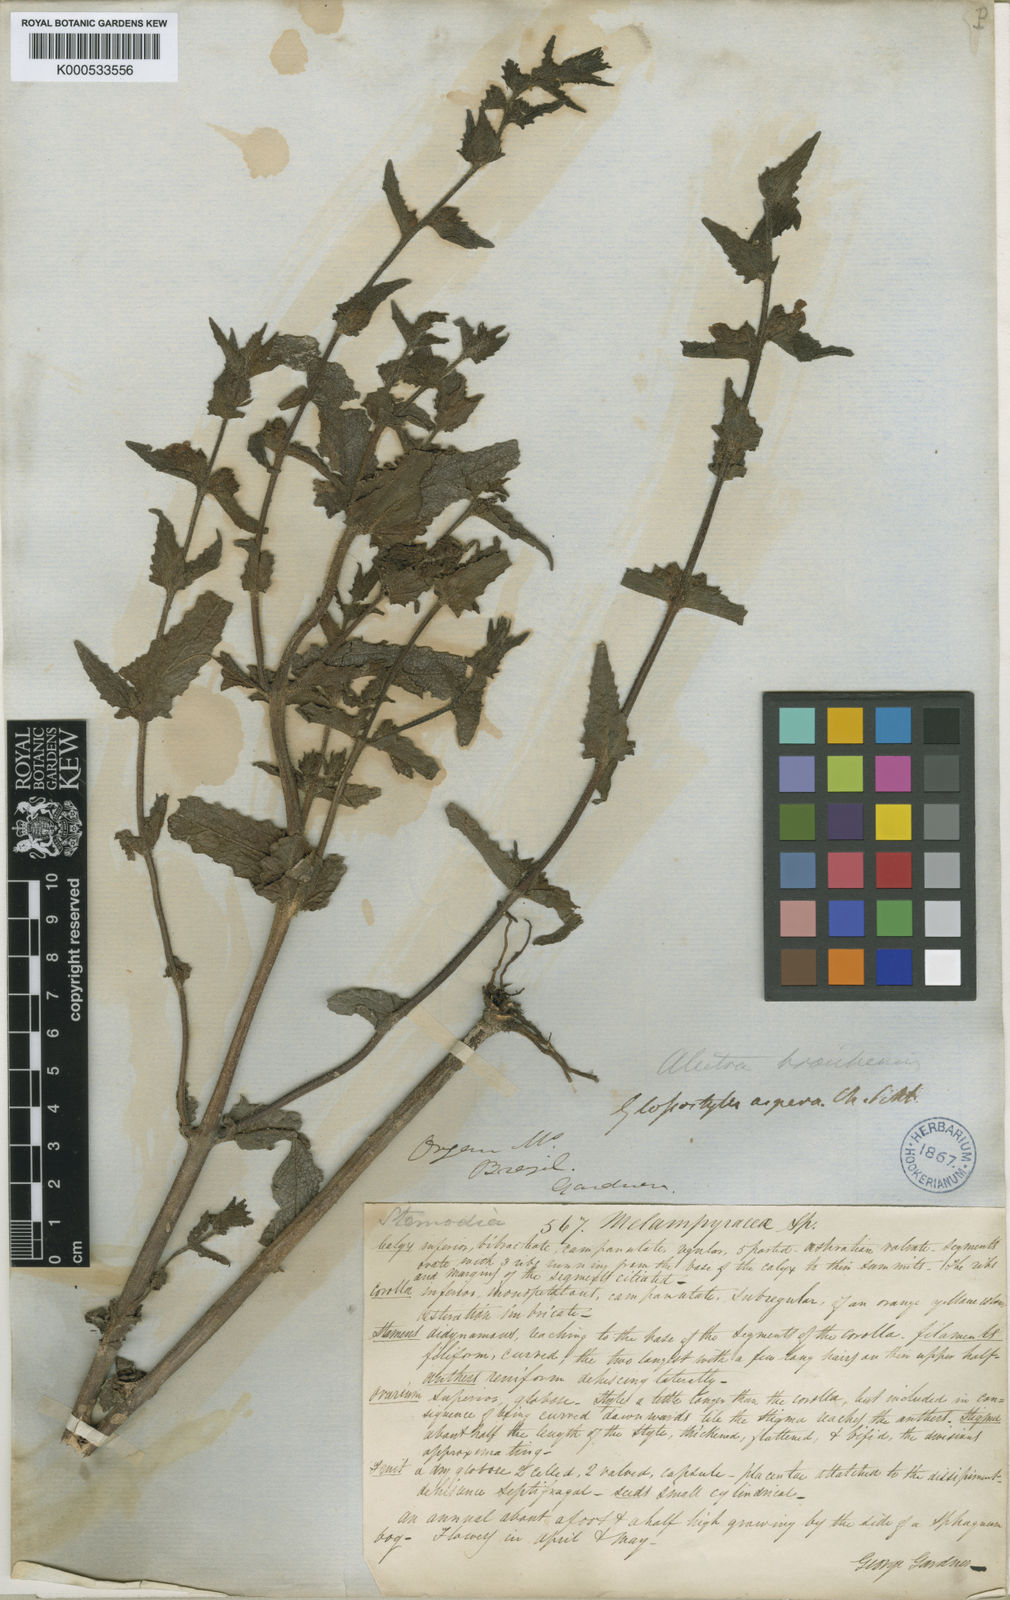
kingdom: Plantae
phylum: Tracheophyta
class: Magnoliopsida
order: Lamiales
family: Orobanchaceae
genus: Alectra
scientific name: Alectra sessiliflora
